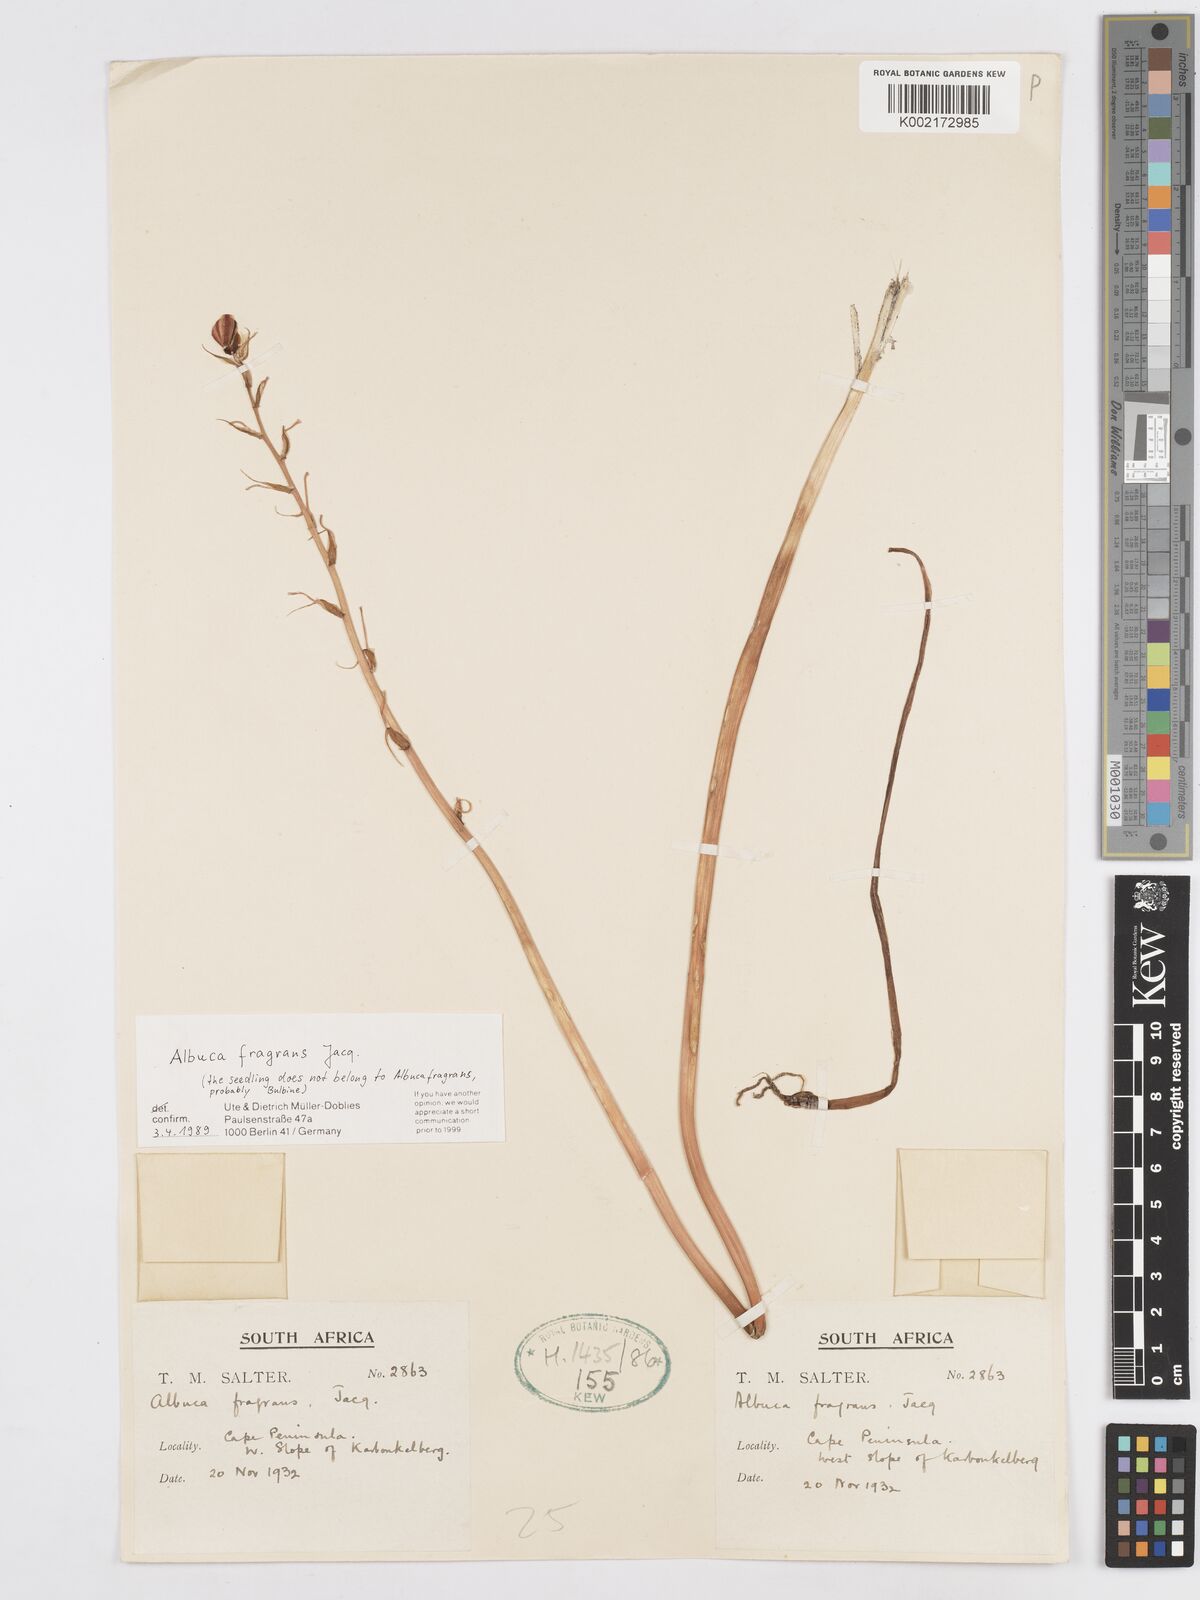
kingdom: Plantae
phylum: Tracheophyta
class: Liliopsida
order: Asparagales
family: Asparagaceae
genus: Albuca
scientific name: Albuca fragrans
